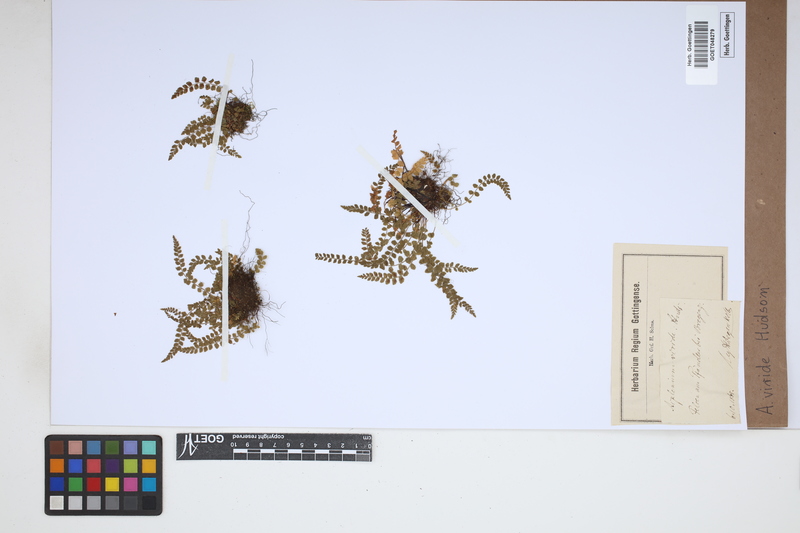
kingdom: Plantae
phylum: Tracheophyta
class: Polypodiopsida
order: Polypodiales
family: Aspleniaceae
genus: Asplenium
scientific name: Asplenium viride
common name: Green spleenwort
